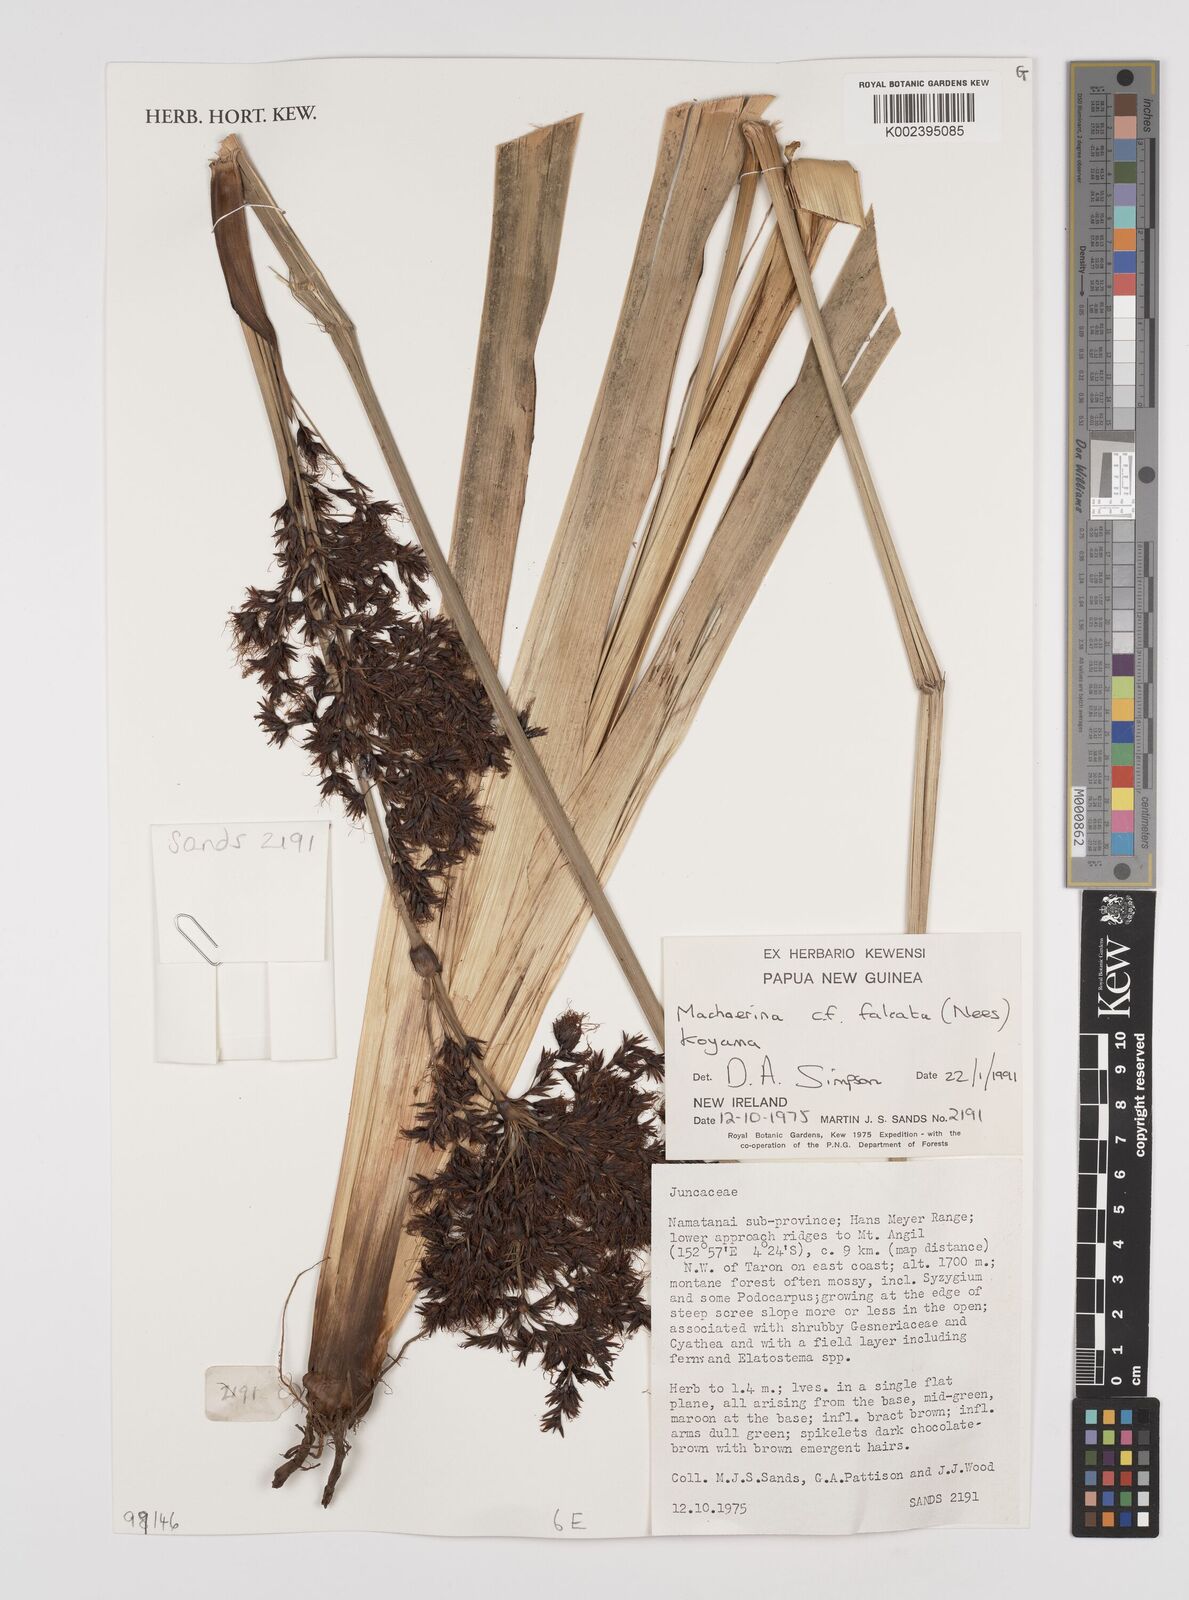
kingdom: Plantae
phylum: Tracheophyta
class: Liliopsida
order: Poales
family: Cyperaceae
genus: Machaerina
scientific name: Machaerina falcata
